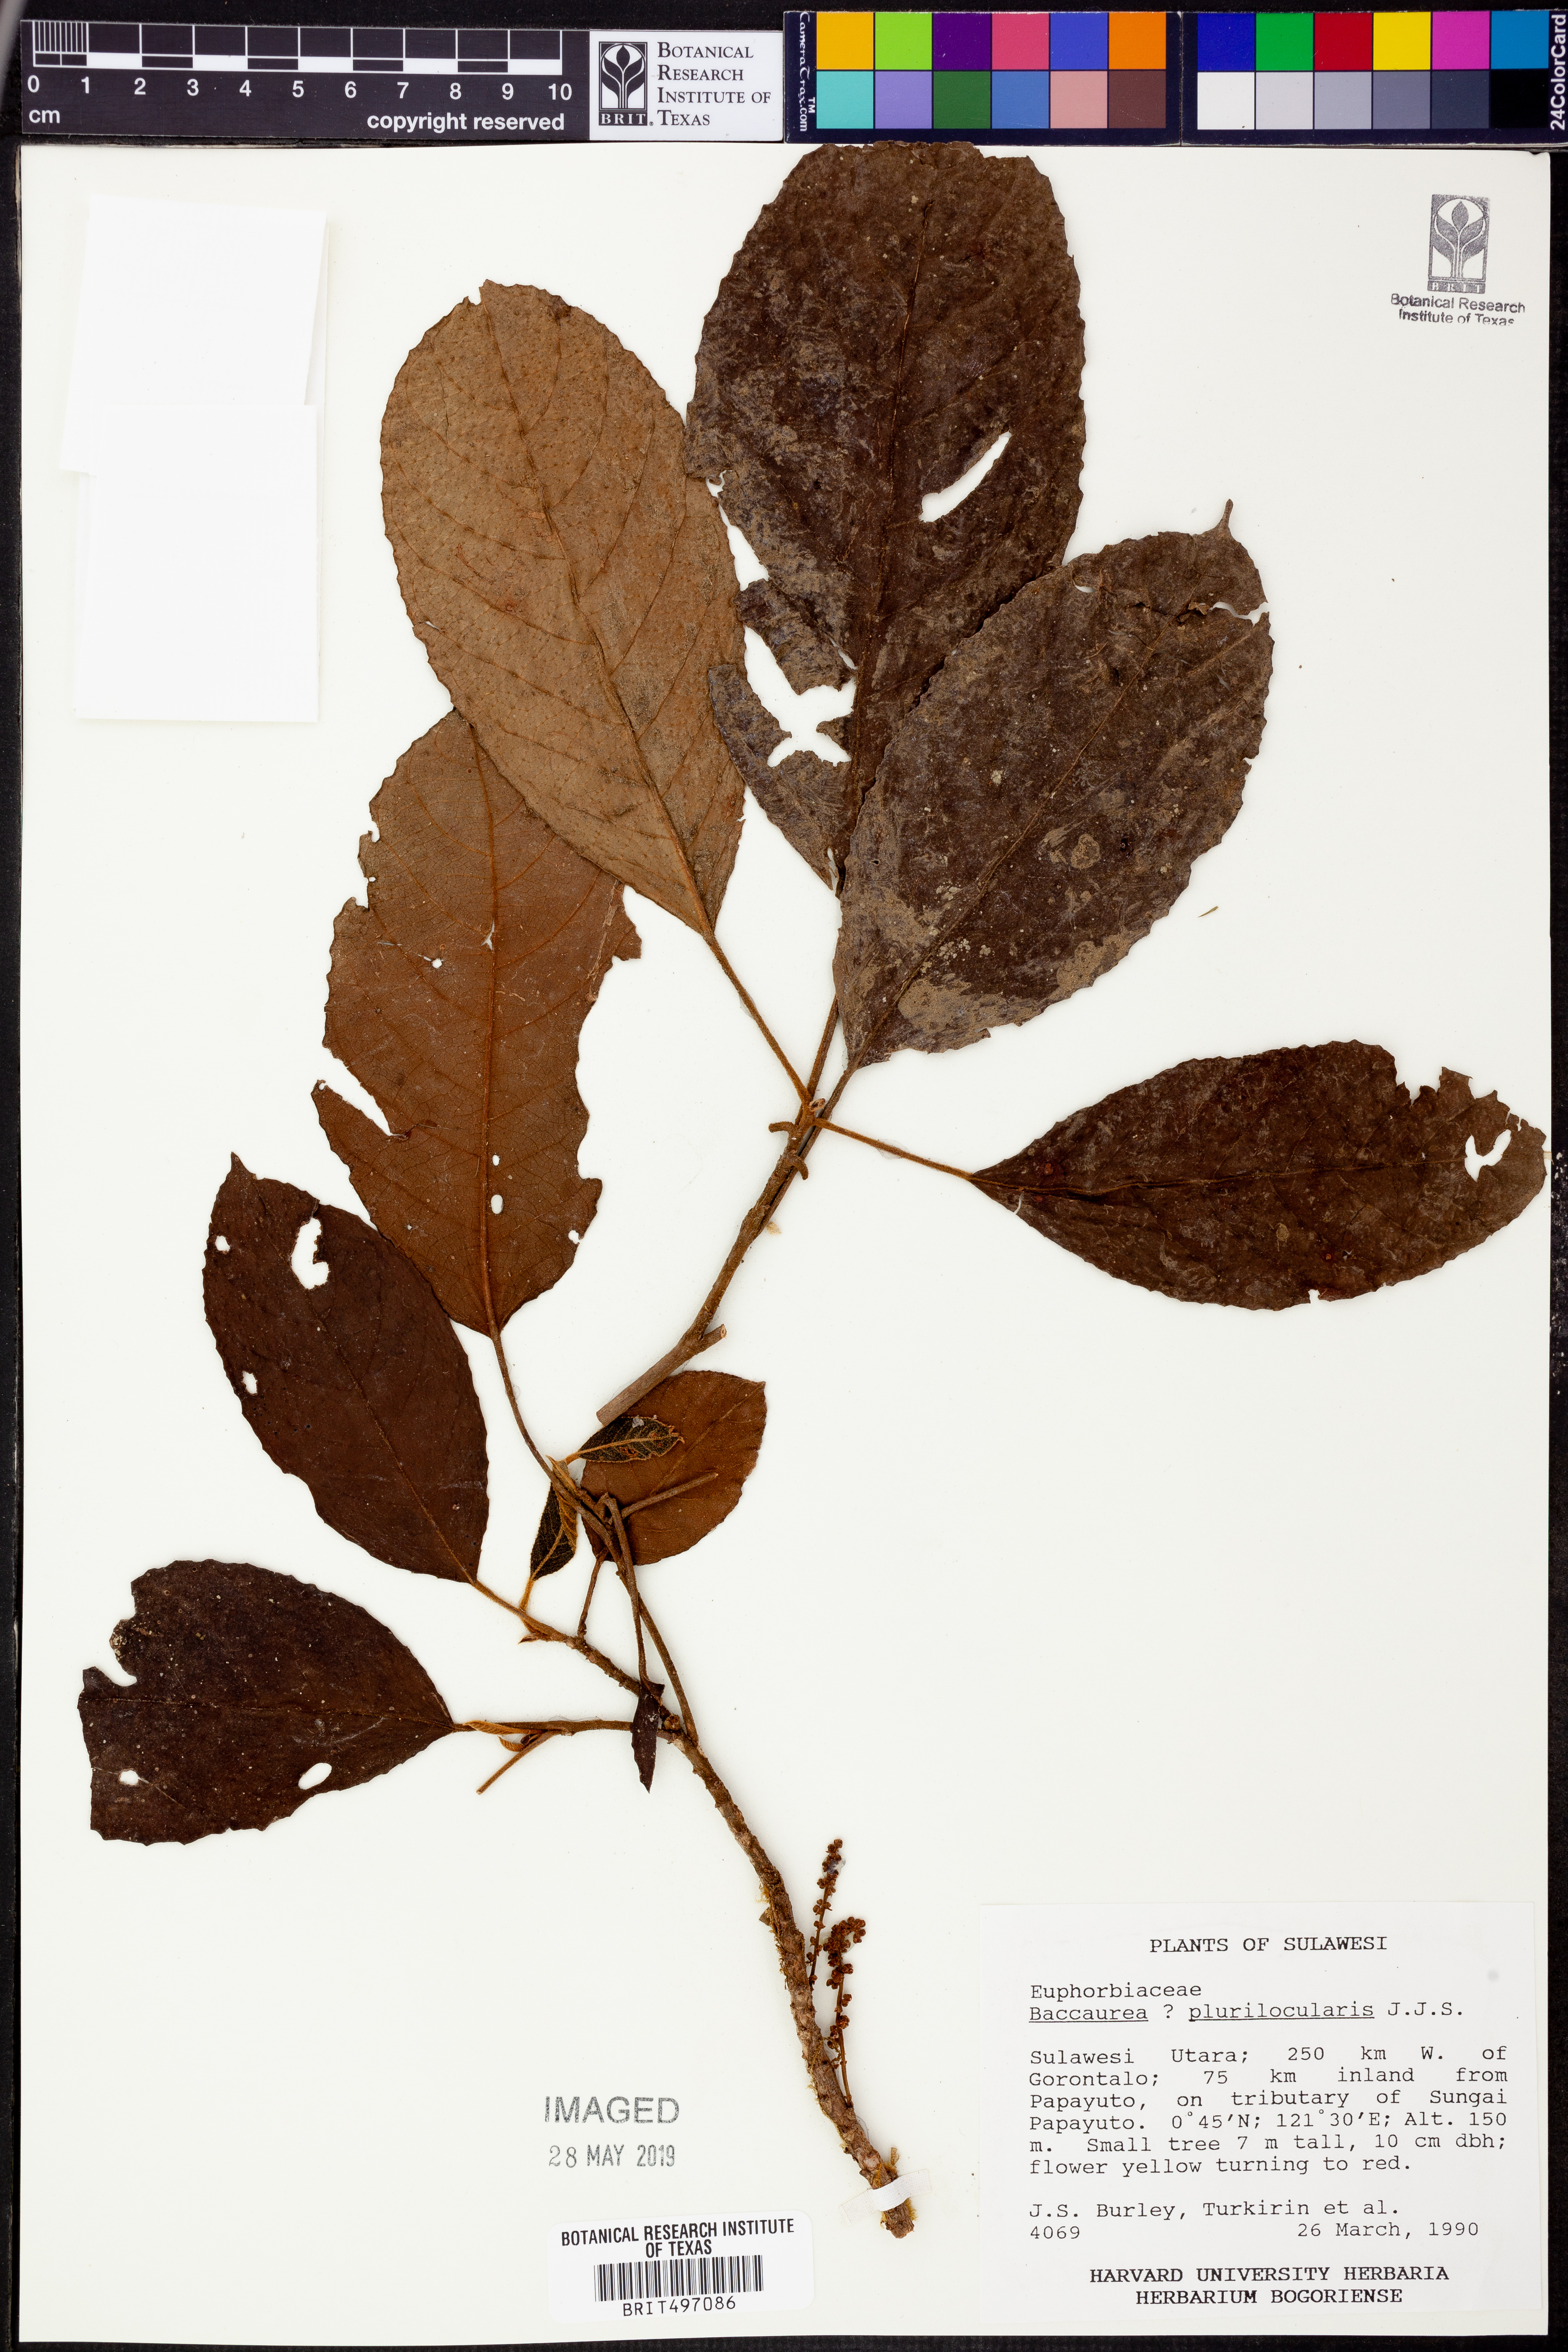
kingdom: Plantae
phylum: Tracheophyta
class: Magnoliopsida
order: Malpighiales
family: Phyllanthaceae
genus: Baccaurea
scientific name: Baccaurea papuana
